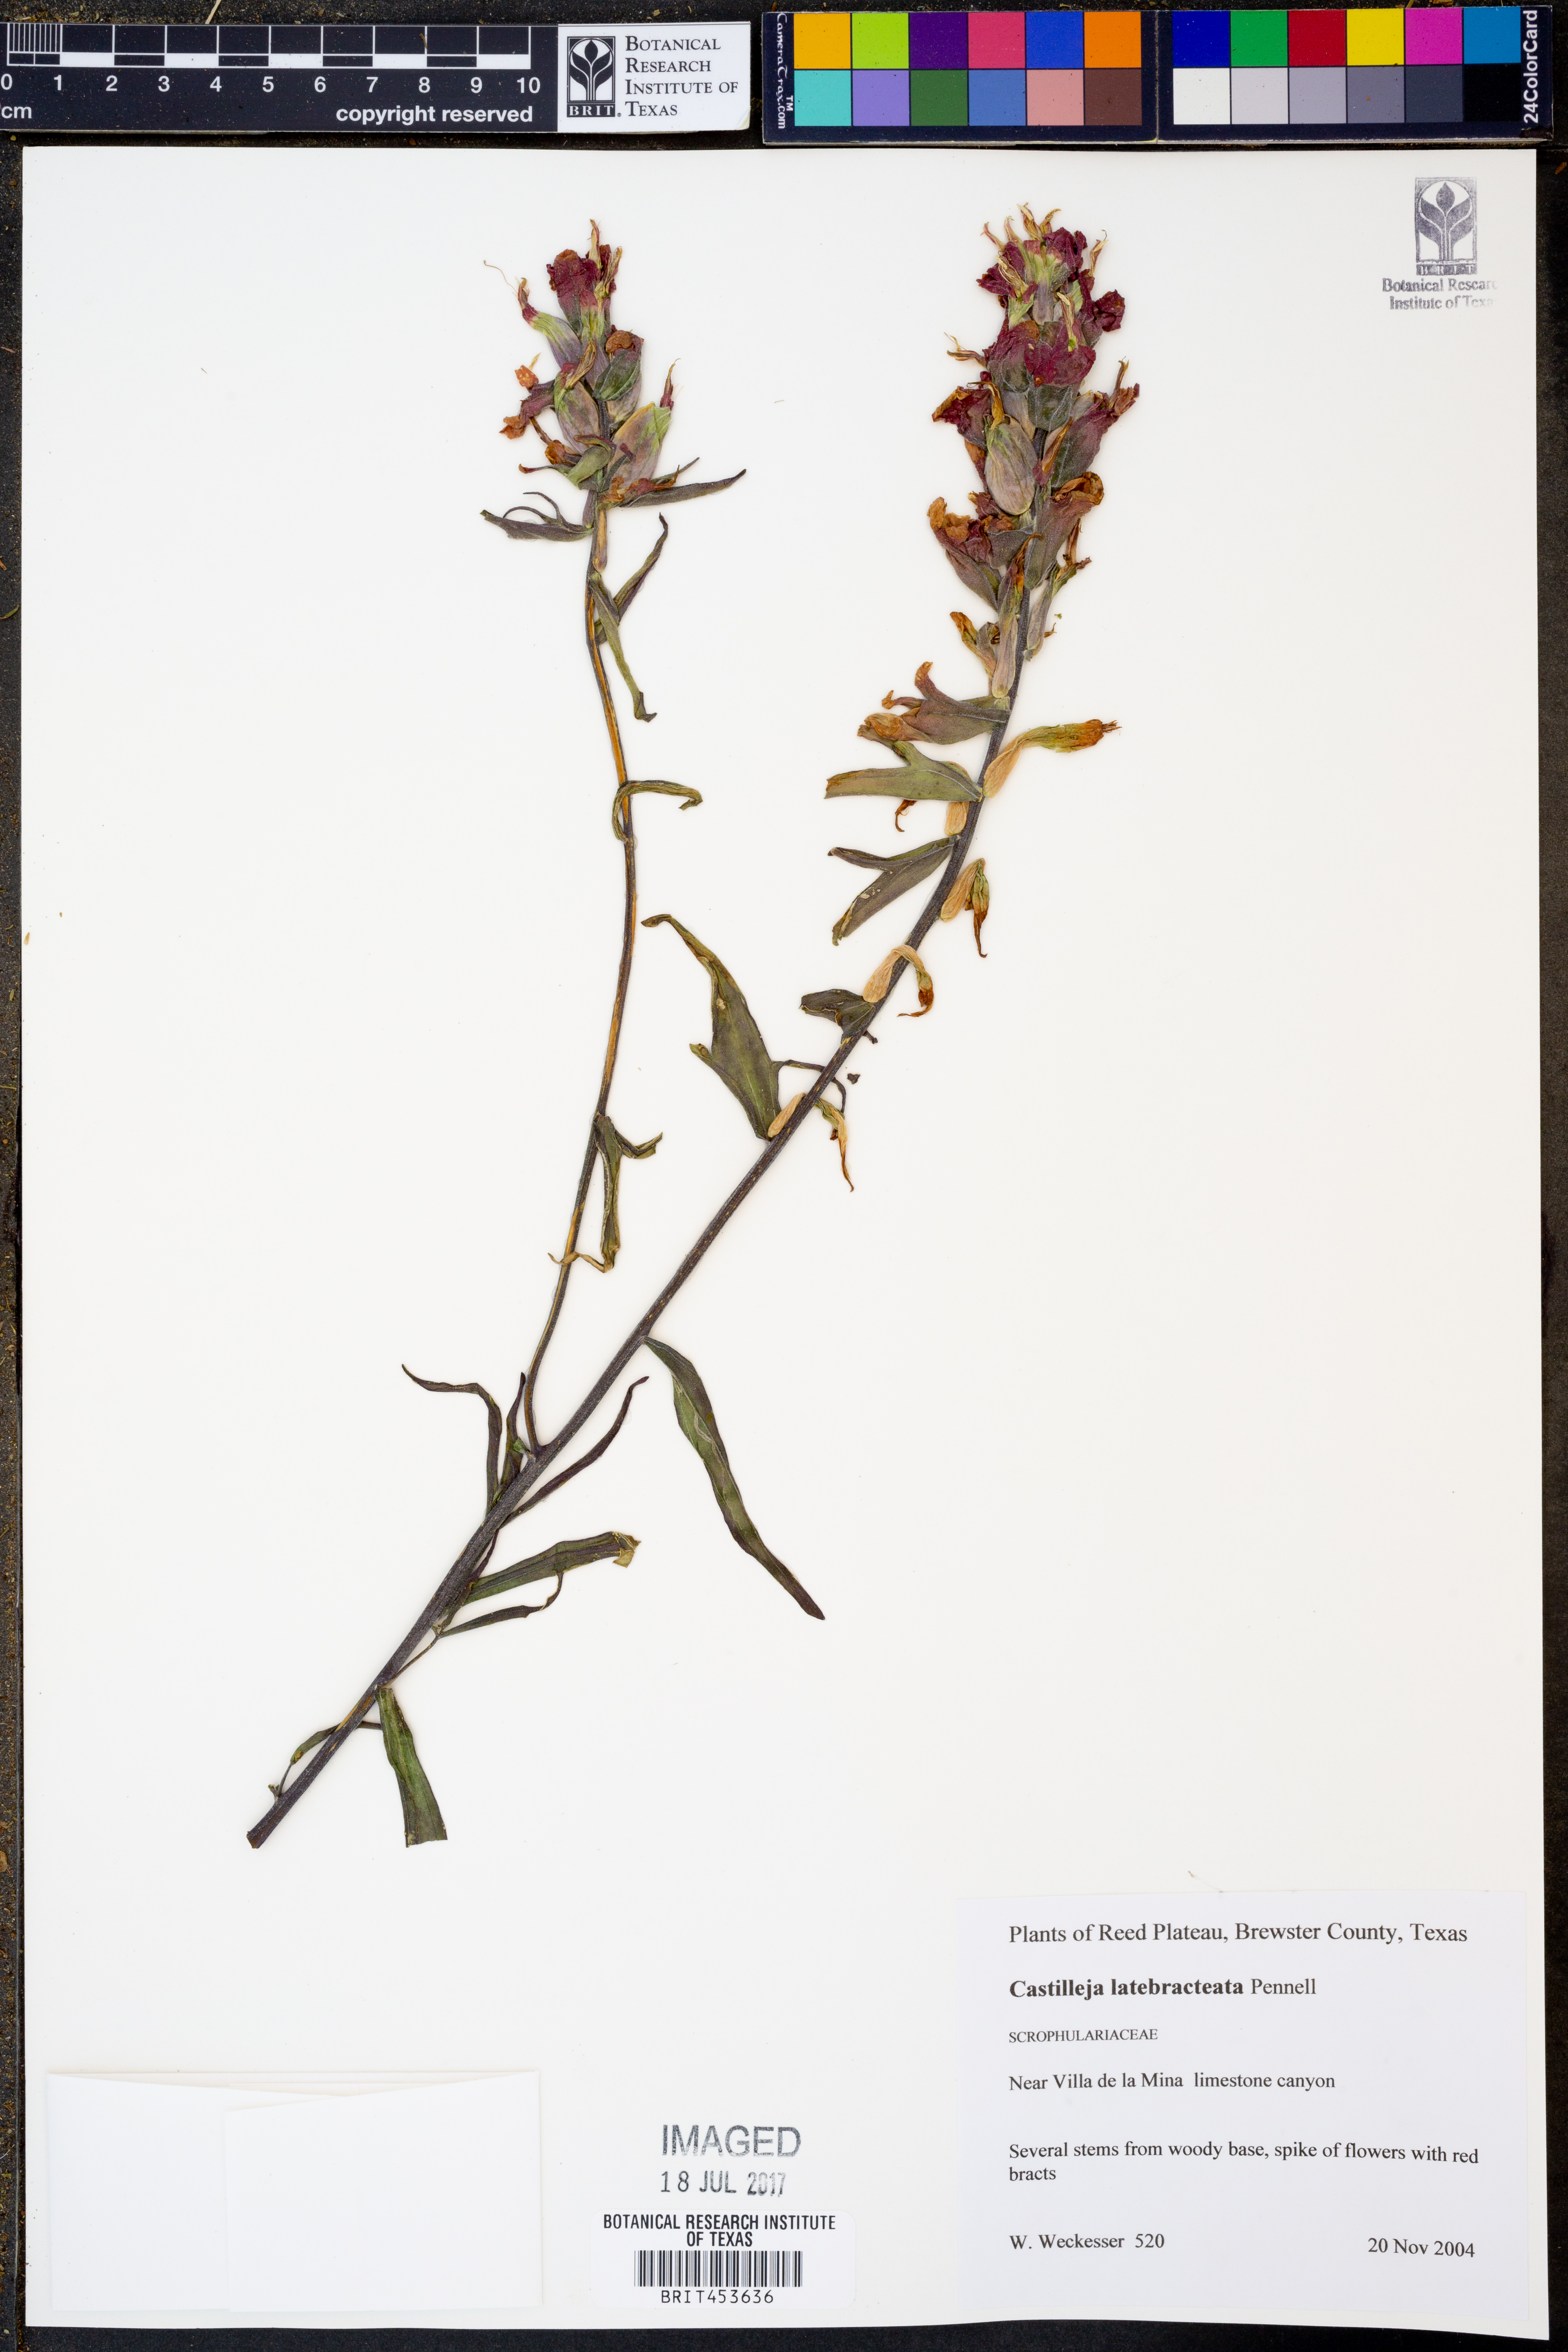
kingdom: Plantae
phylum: Tracheophyta
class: Magnoliopsida
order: Lamiales
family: Orobanchaceae
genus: Castilleja
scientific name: Castilleja rigida
